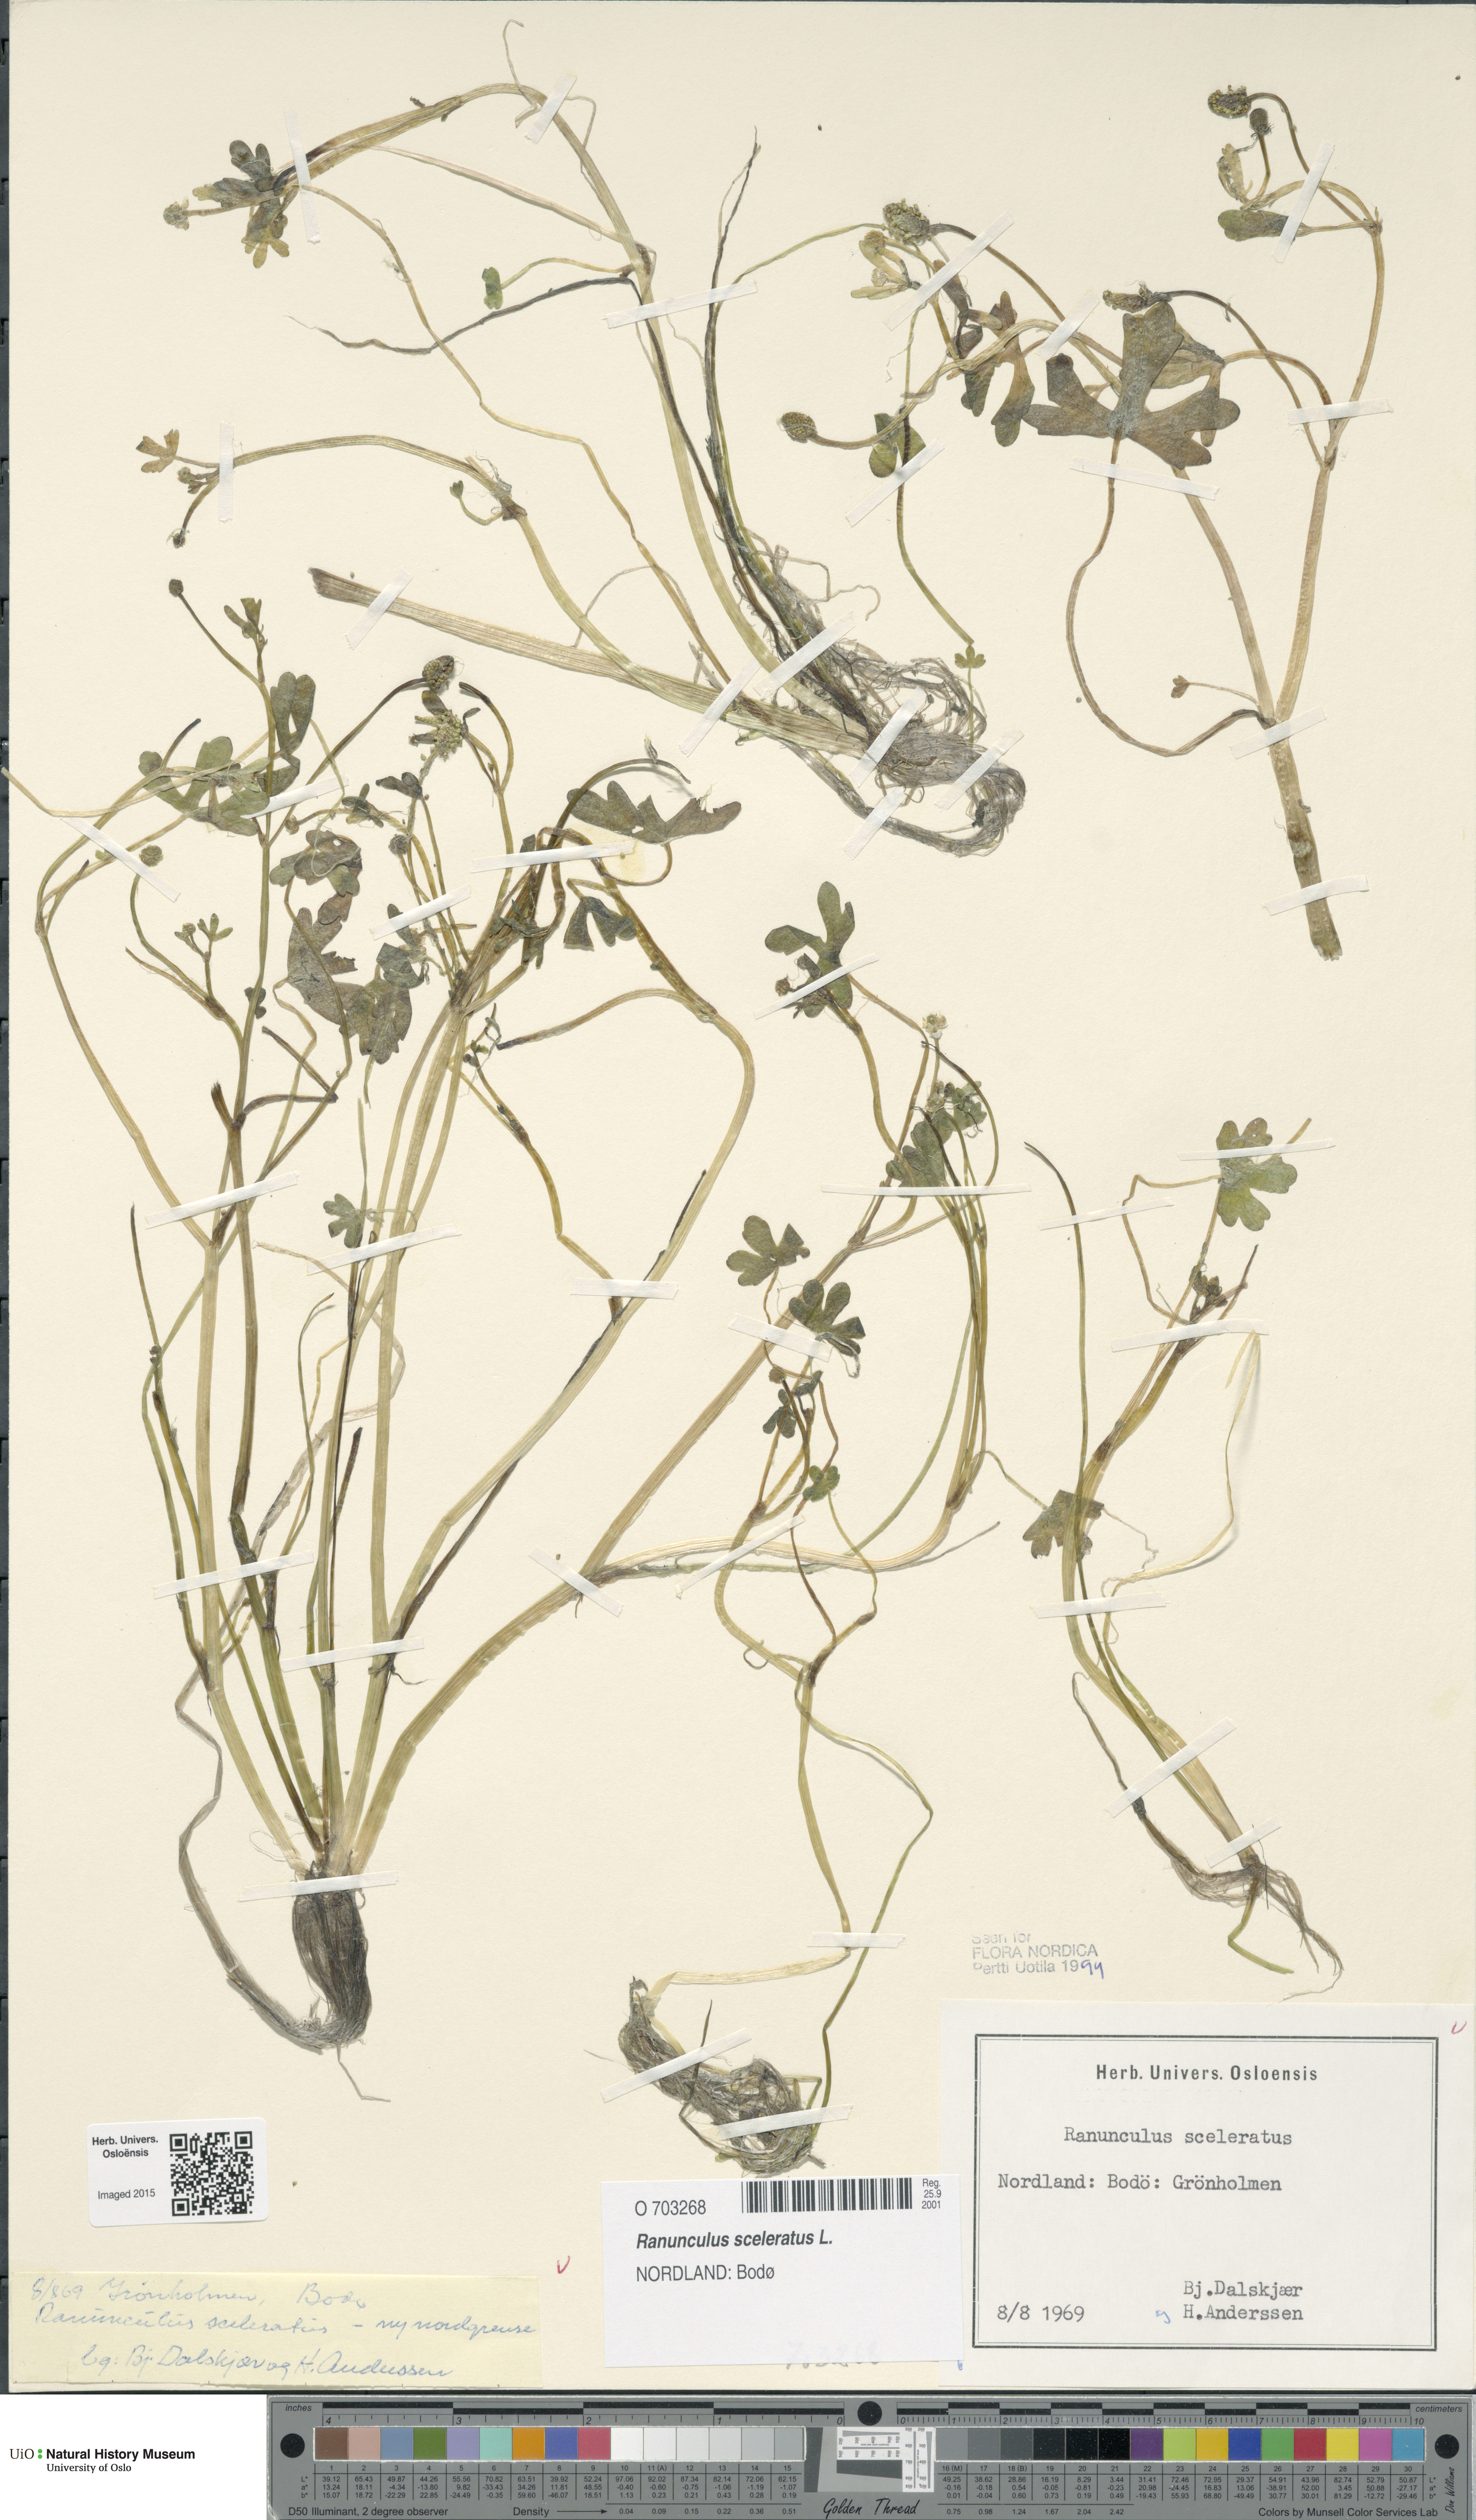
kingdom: Plantae
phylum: Tracheophyta
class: Magnoliopsida
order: Ranunculales
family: Ranunculaceae
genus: Ranunculus
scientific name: Ranunculus sceleratus
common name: Celery-leaved buttercup
